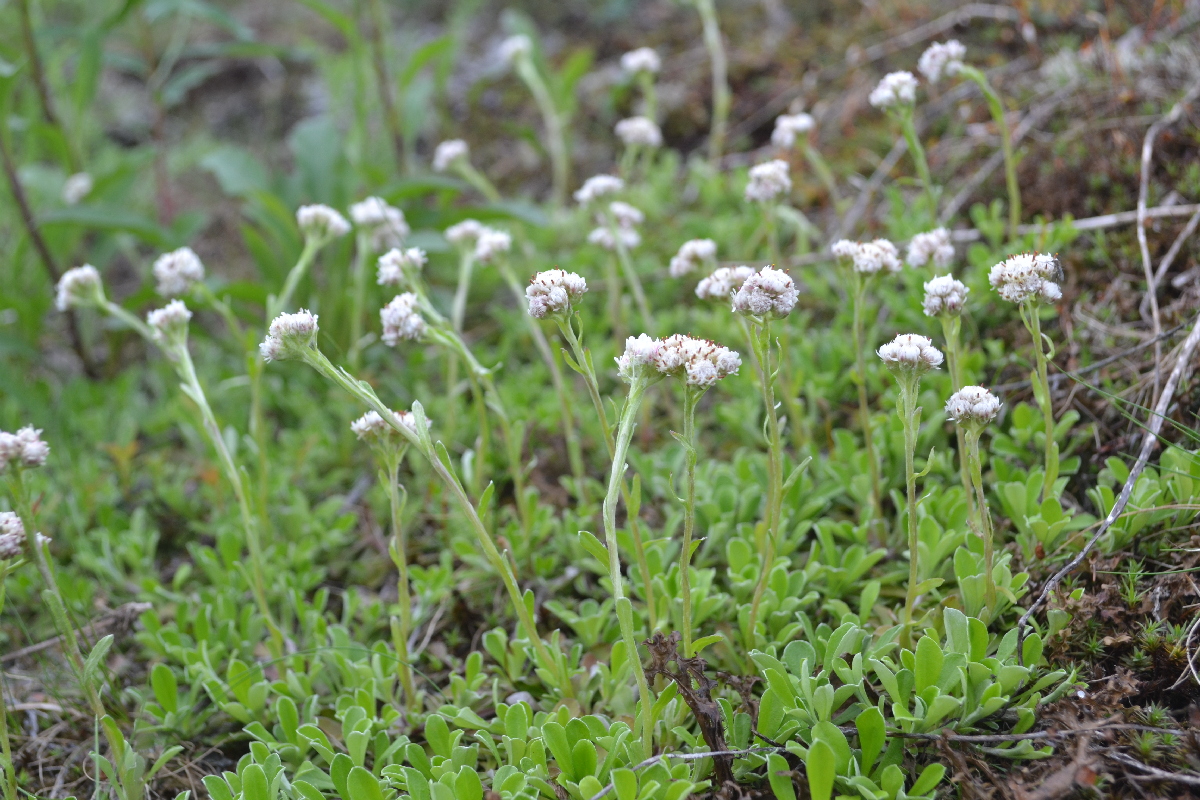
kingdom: Plantae
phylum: Tracheophyta
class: Magnoliopsida
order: Asterales
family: Asteraceae
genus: Antennaria
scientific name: Antennaria dioica
